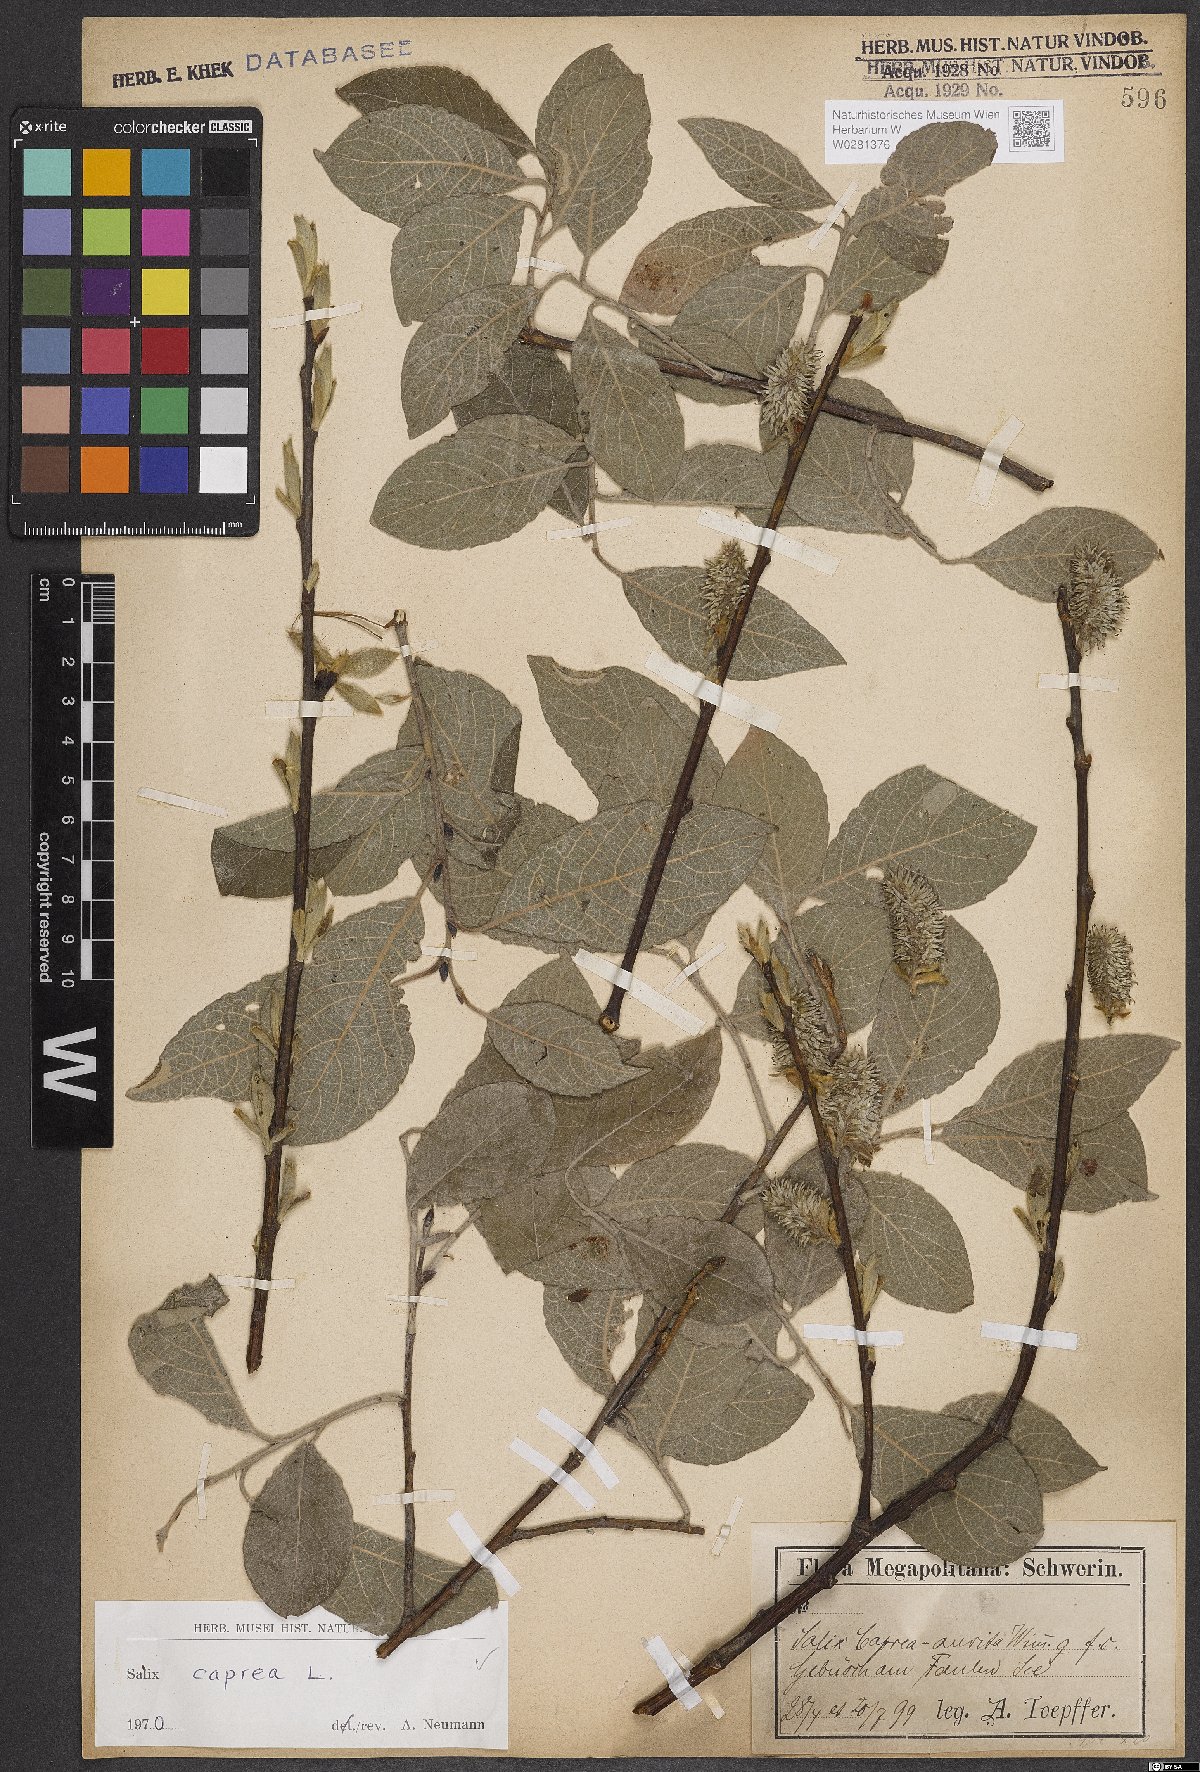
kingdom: Plantae
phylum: Tracheophyta
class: Magnoliopsida
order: Malpighiales
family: Salicaceae
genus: Salix
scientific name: Salix caprea
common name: Goat willow
